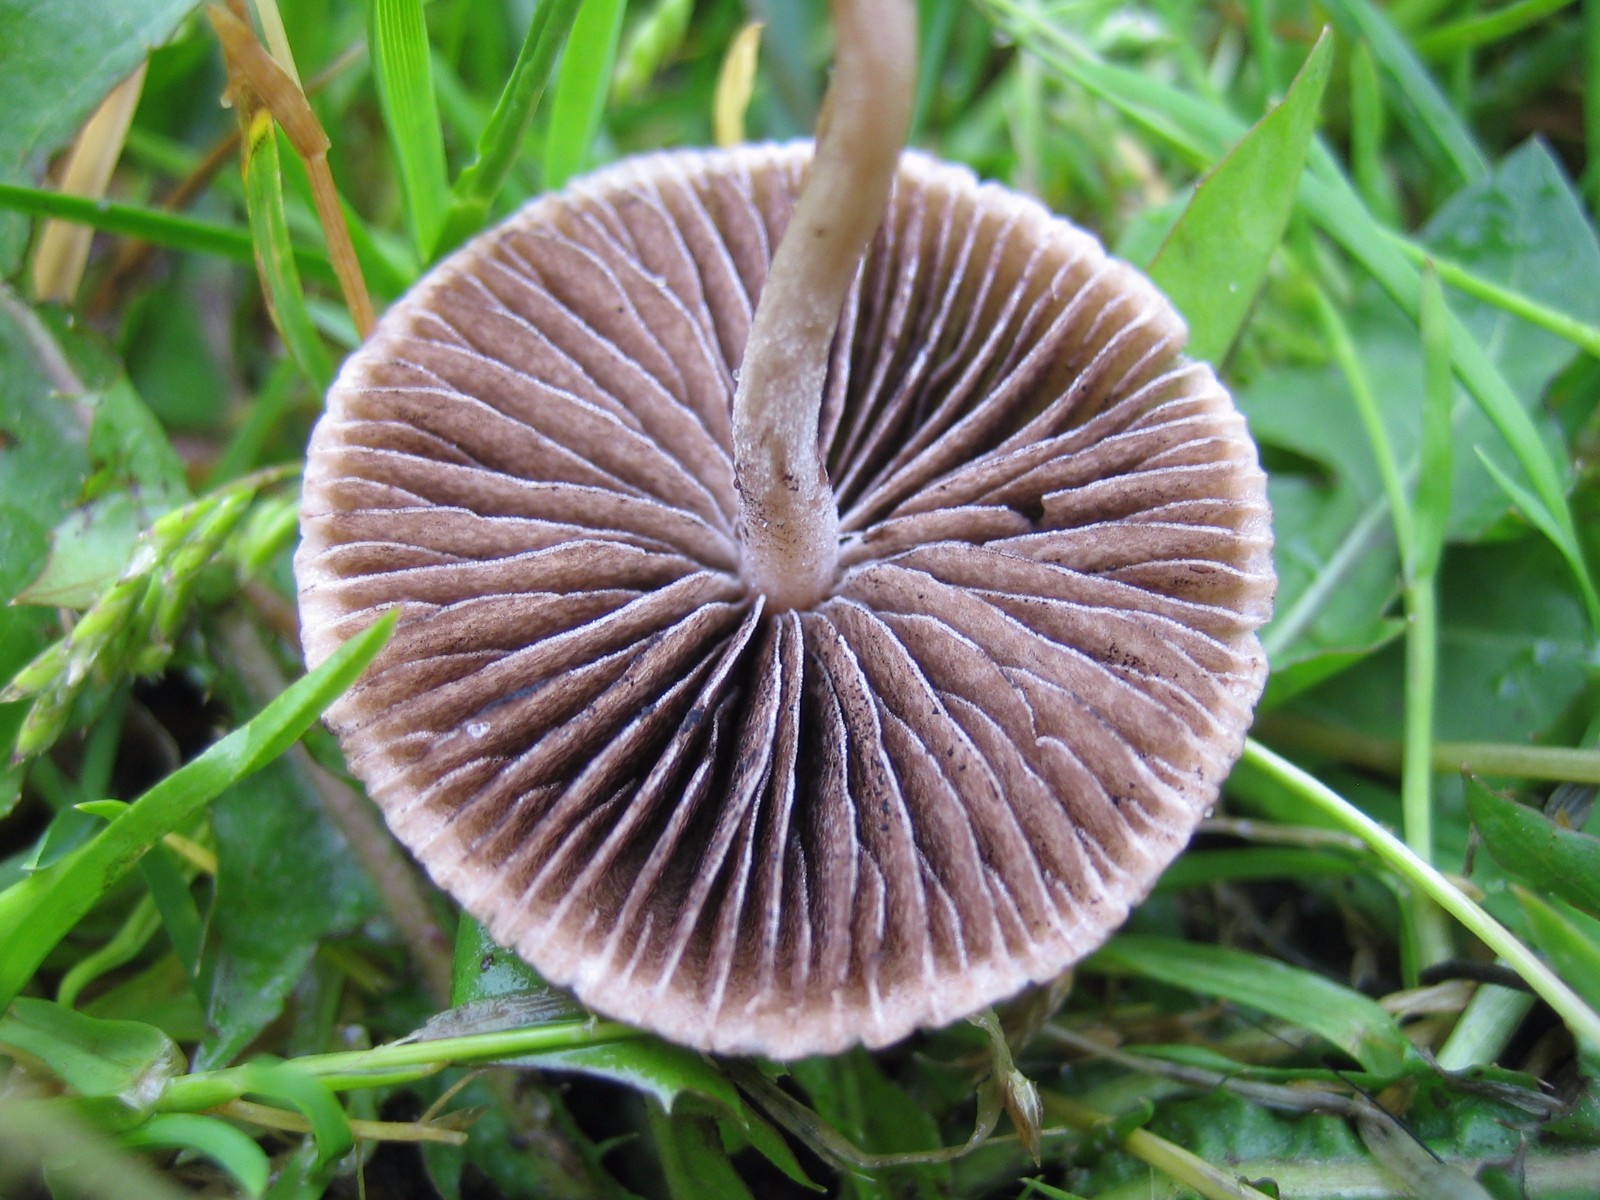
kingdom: Fungi
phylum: Basidiomycota
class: Agaricomycetes
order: Agaricales
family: Bolbitiaceae
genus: Panaeolina
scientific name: Panaeolina foenisecii
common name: høslætsvamp
